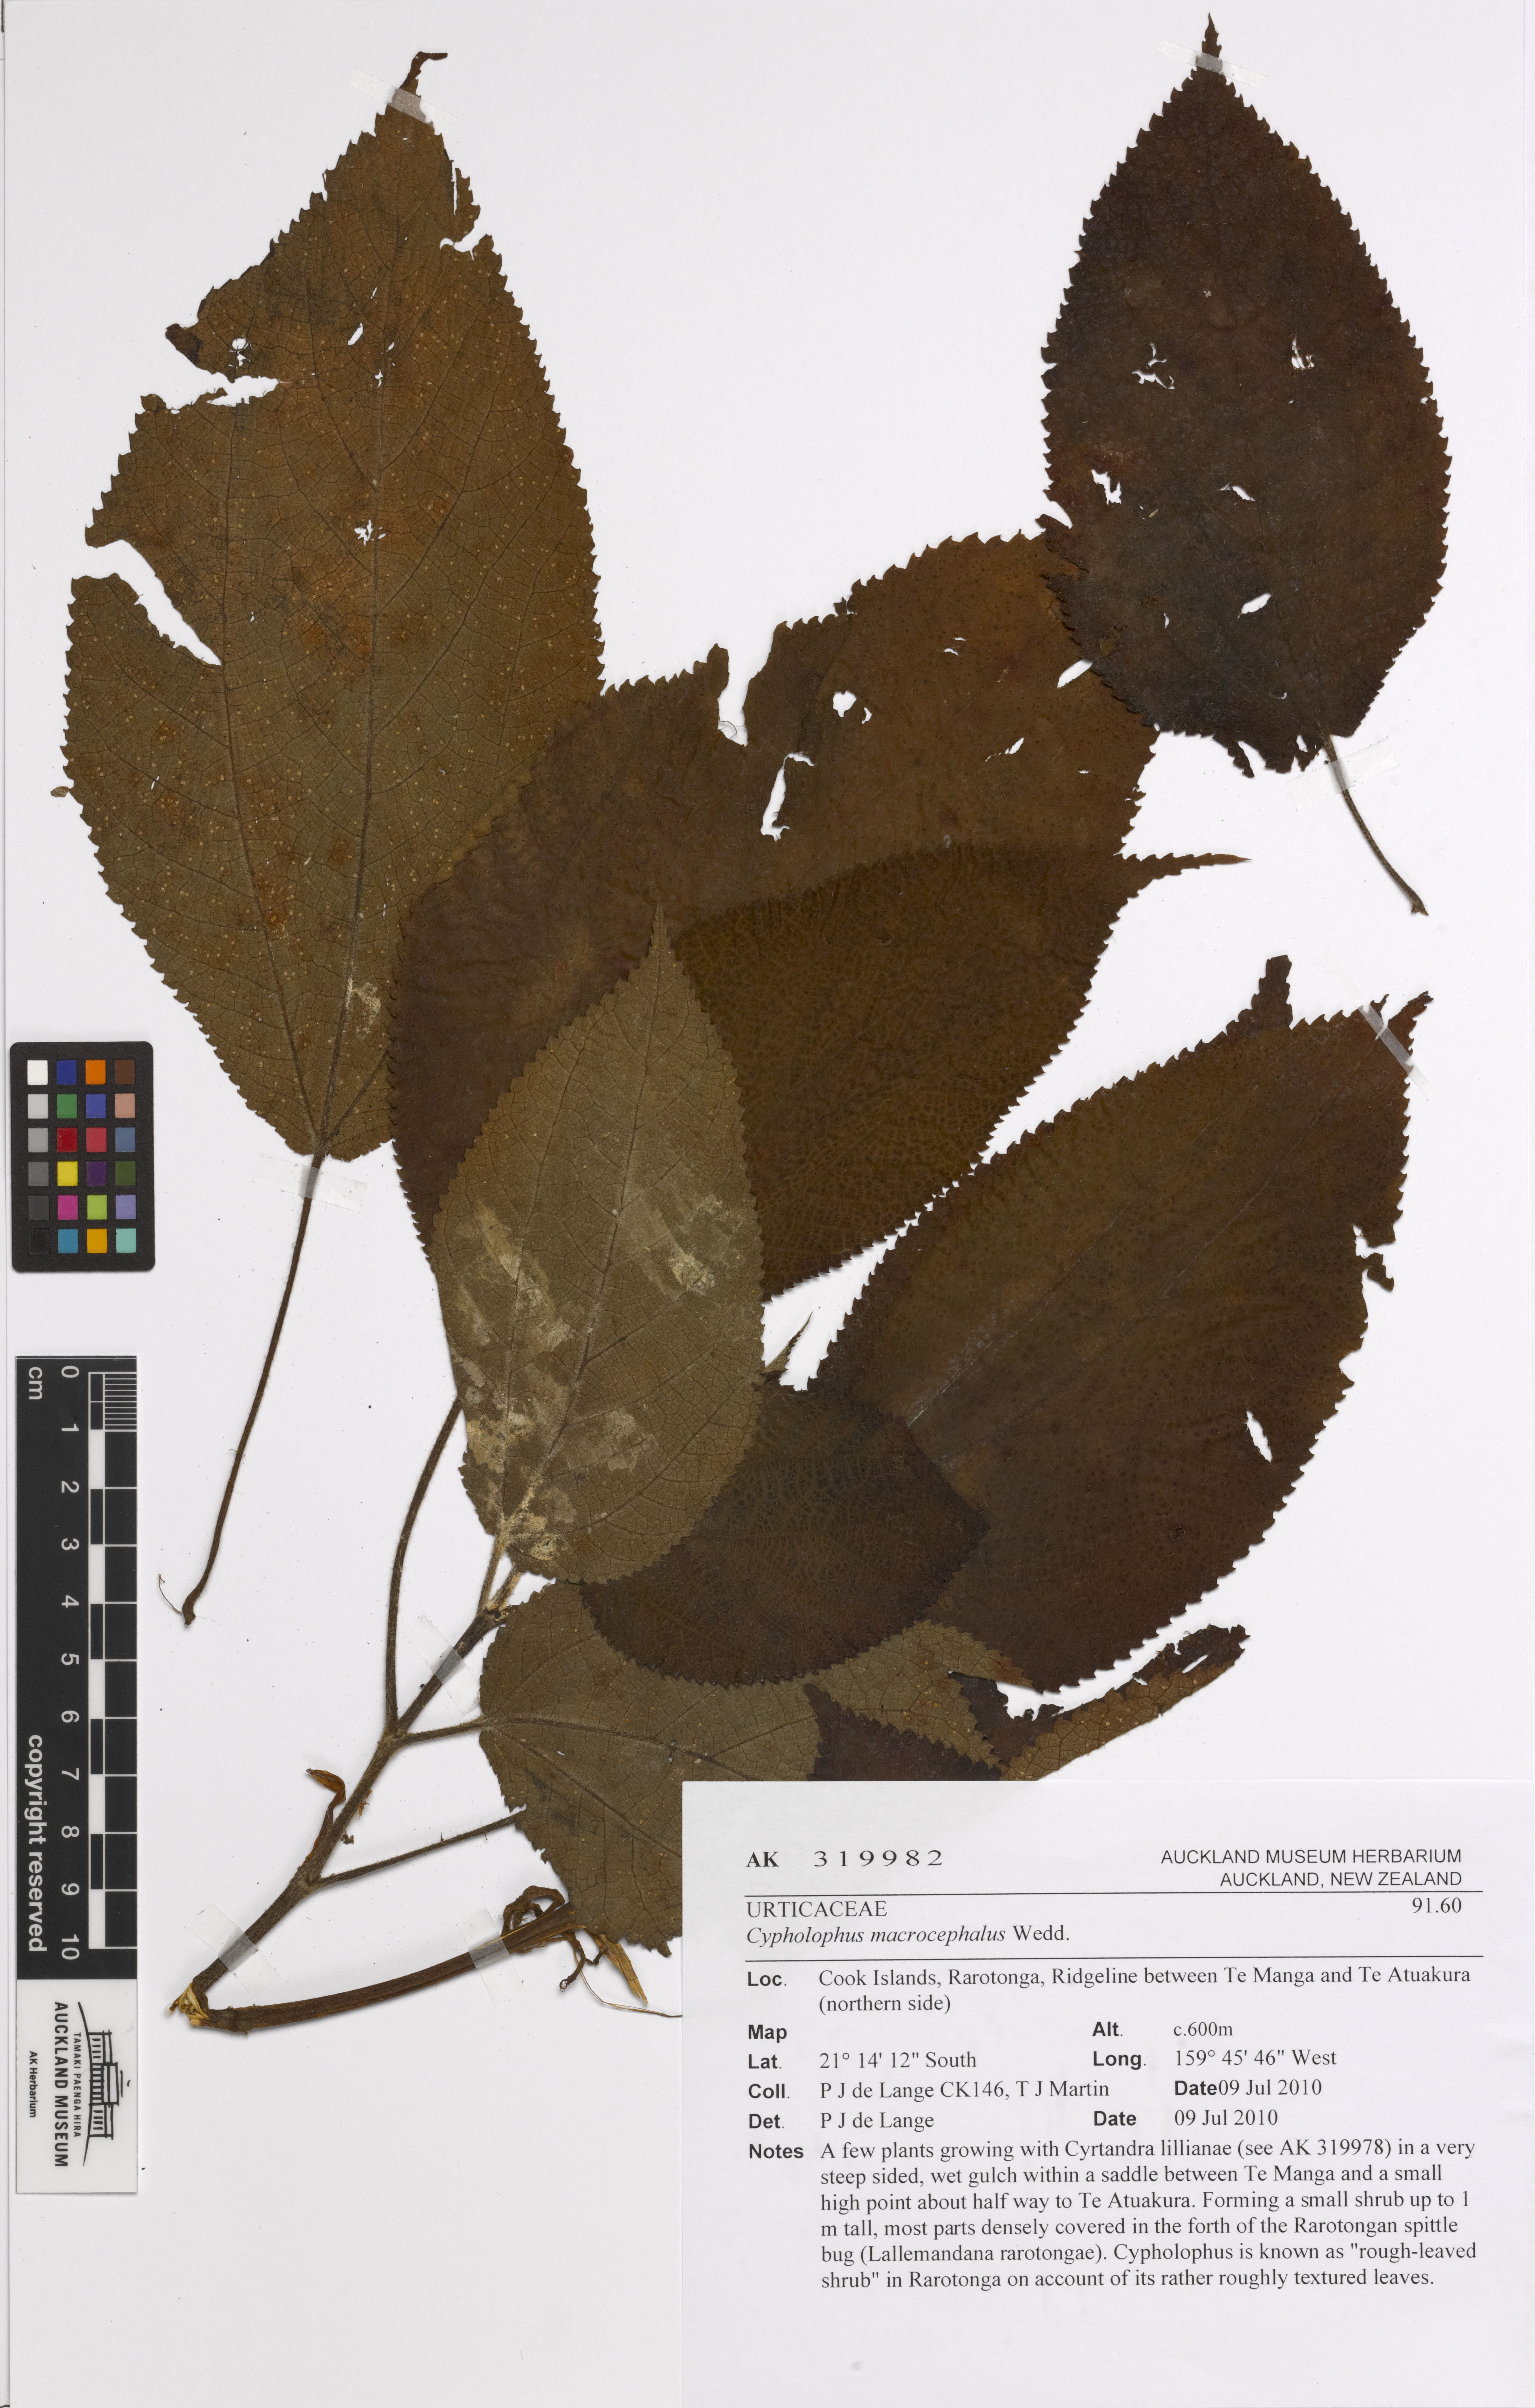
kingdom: Plantae
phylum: Tracheophyta
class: Magnoliopsida
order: Rosales
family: Urticaceae
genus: Cypholophus
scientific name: Cypholophus macrocephalus
